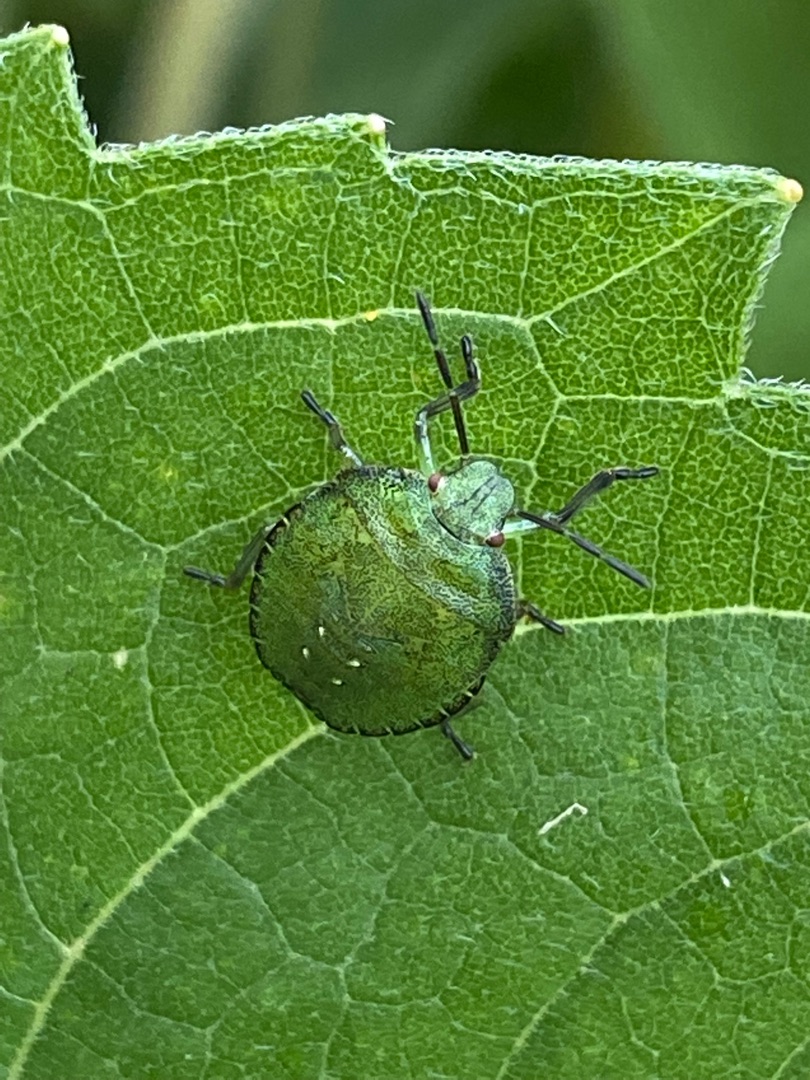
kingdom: Animalia
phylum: Arthropoda
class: Insecta
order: Hemiptera
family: Pentatomidae
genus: Palomena
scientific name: Palomena prasina
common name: Grøn bredtæge
